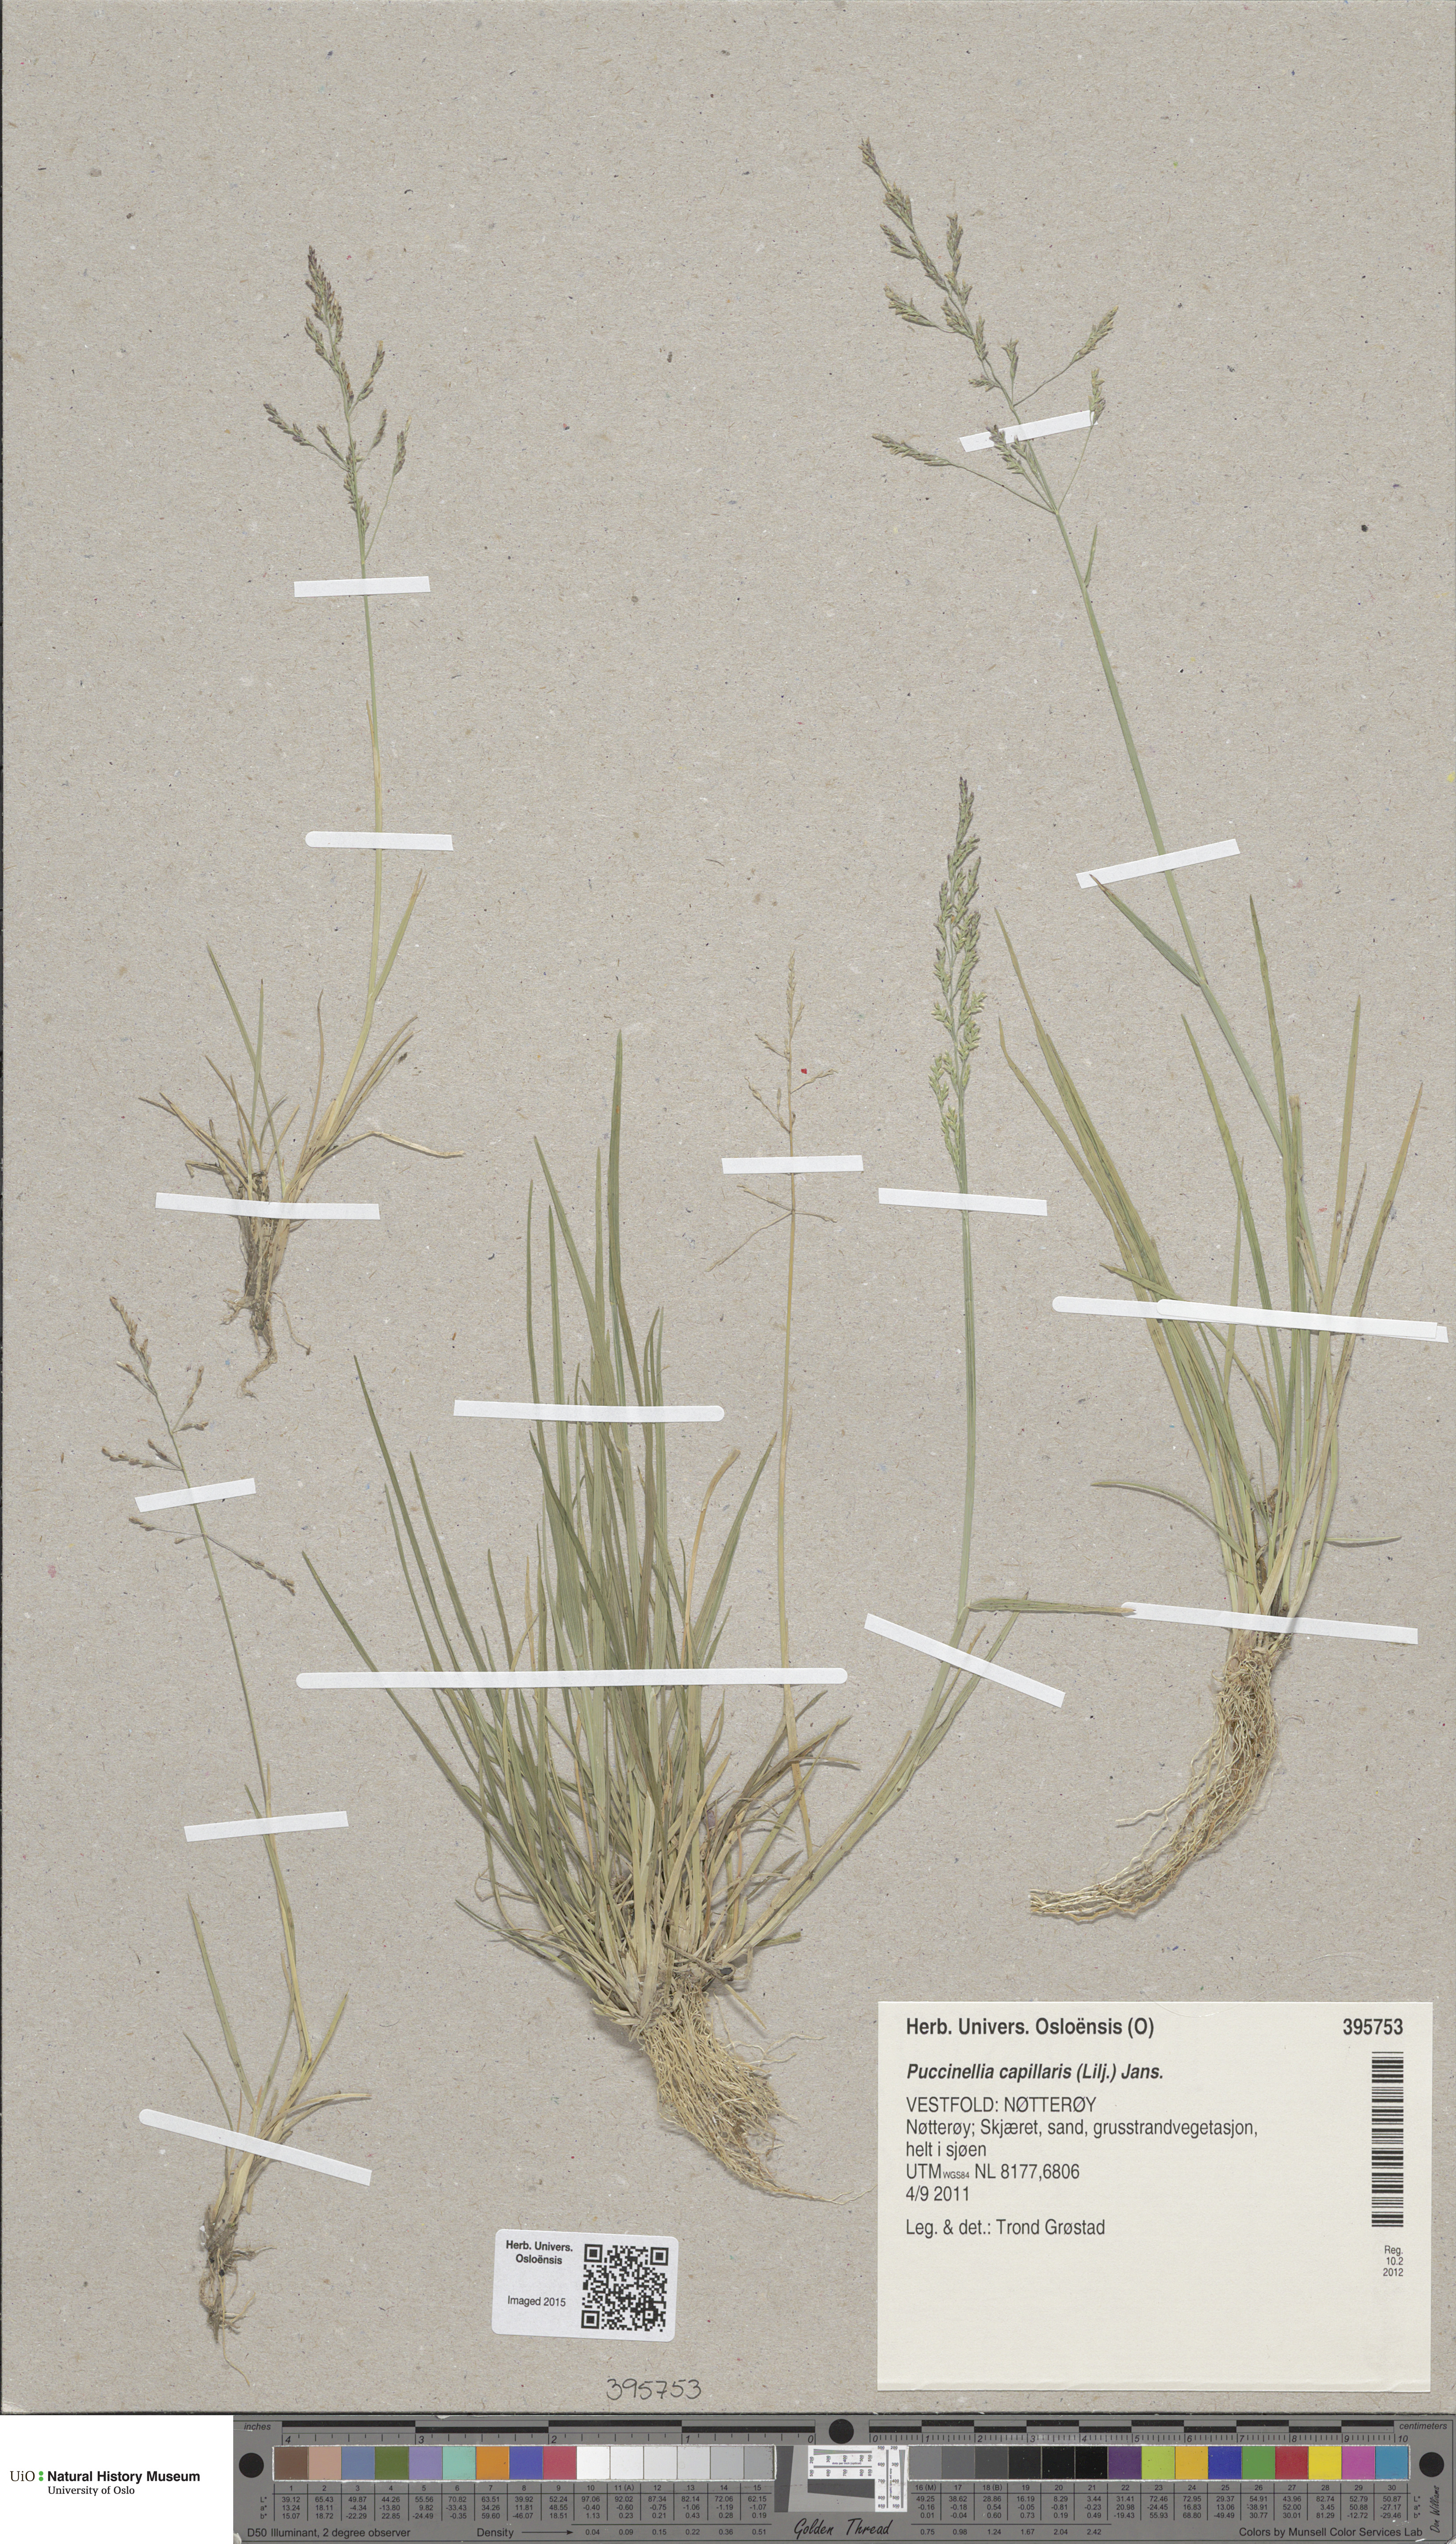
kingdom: Plantae
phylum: Tracheophyta
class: Liliopsida
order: Poales
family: Poaceae
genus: Puccinellia
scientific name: Puccinellia distans
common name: Weeping alkaligrass
